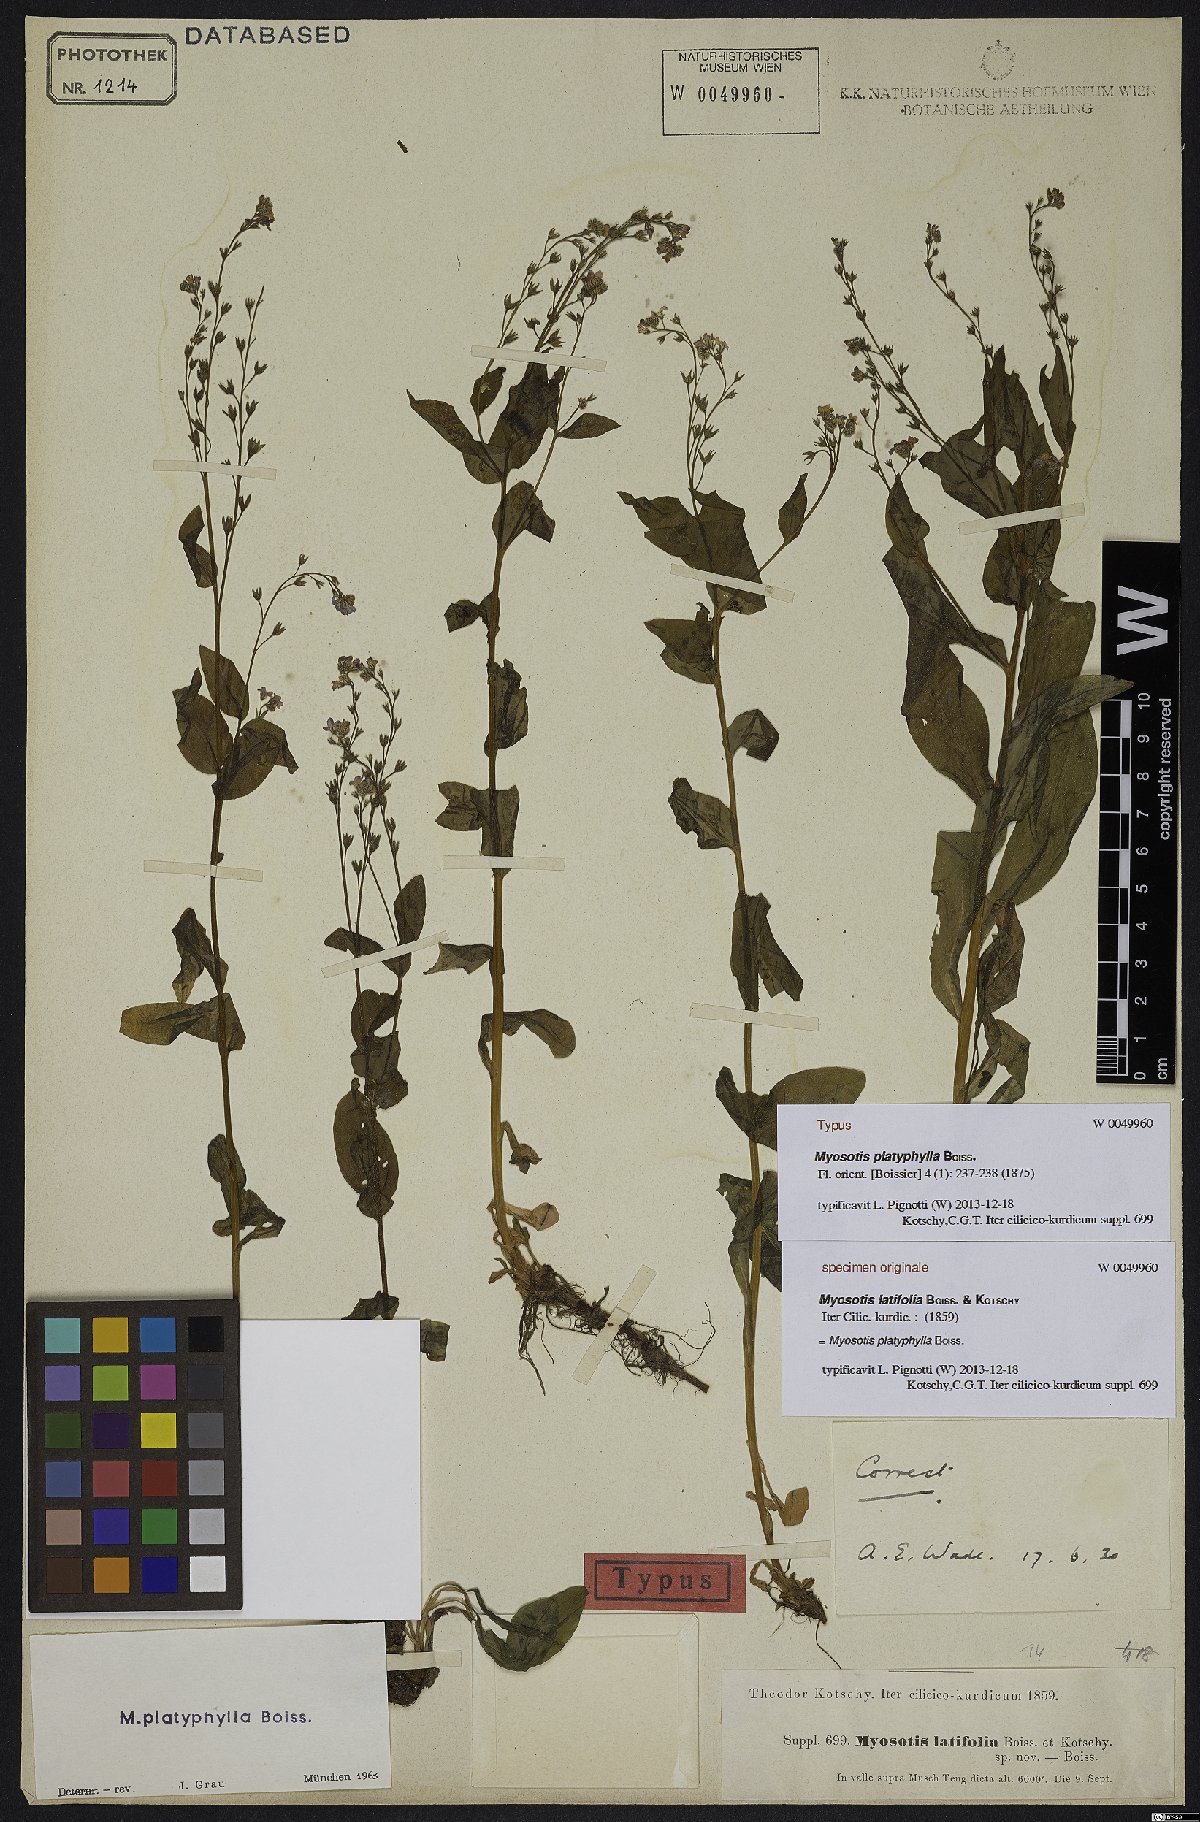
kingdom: Plantae
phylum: Tracheophyta
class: Magnoliopsida
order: Boraginales
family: Boraginaceae
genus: Myosotis
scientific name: Myosotis platyphylla
